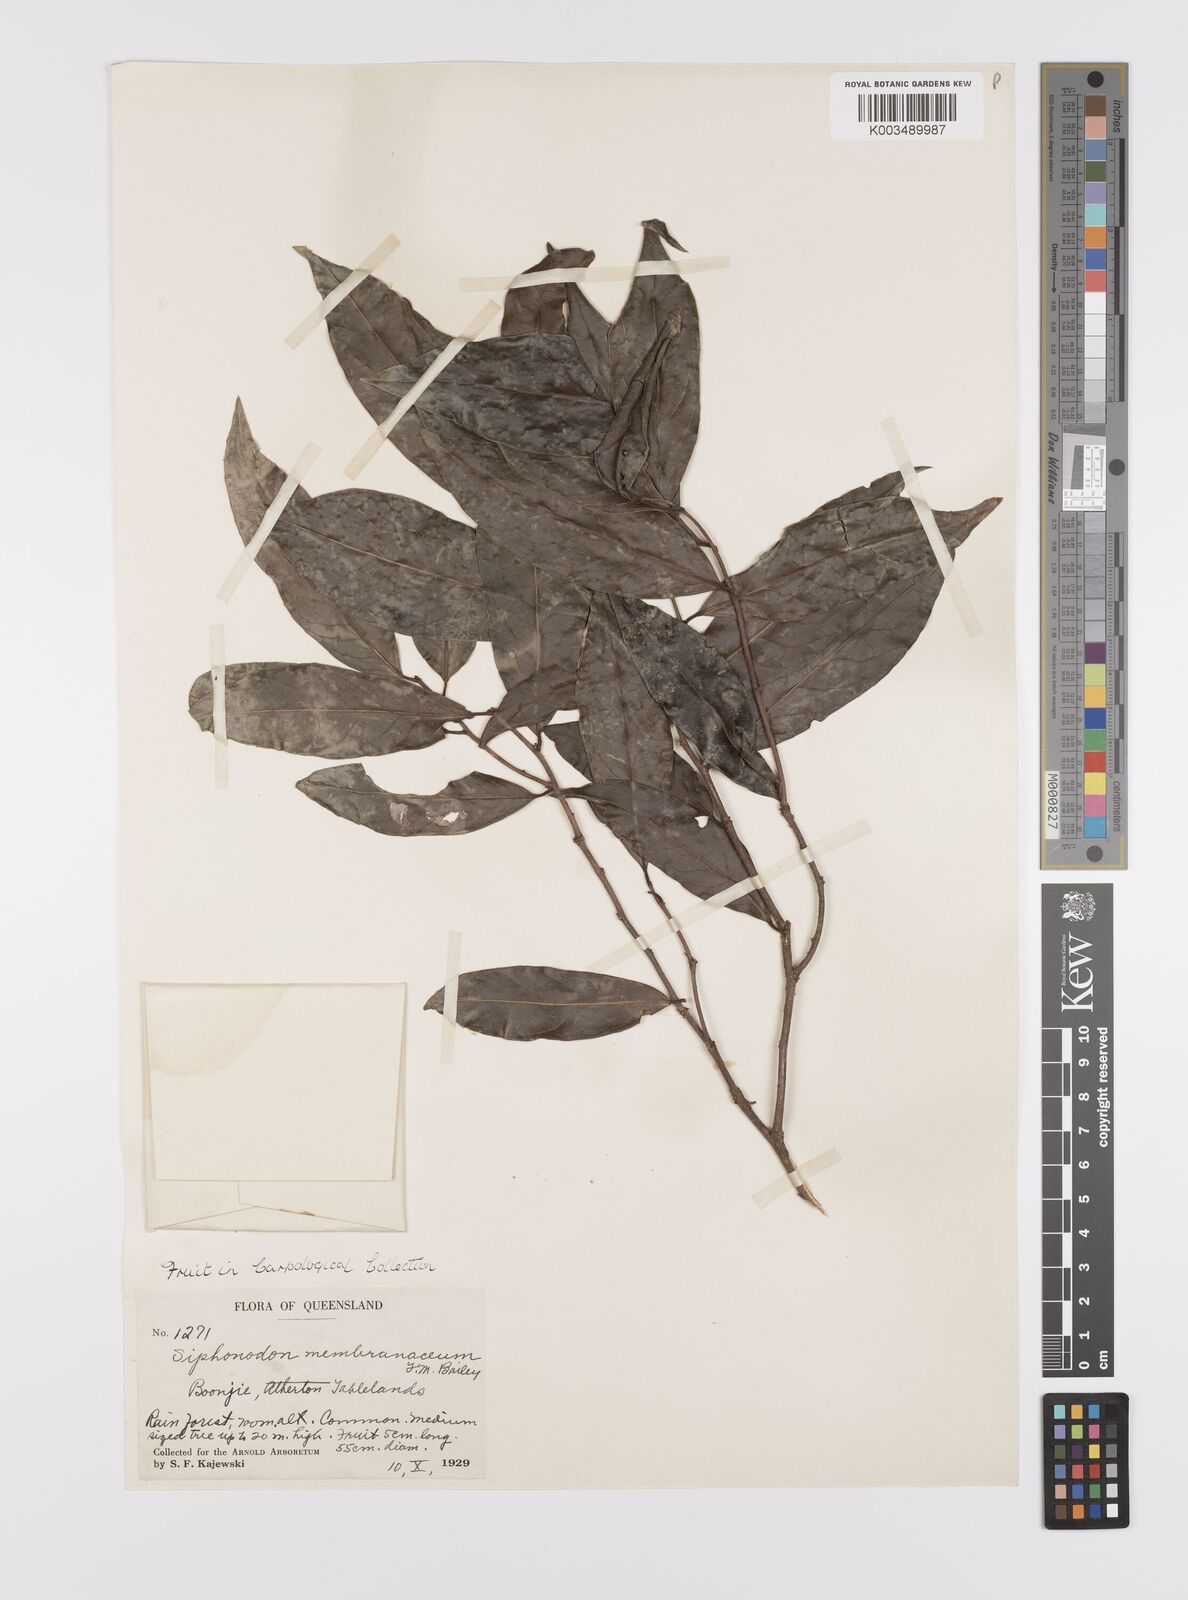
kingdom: Plantae
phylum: Tracheophyta
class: Magnoliopsida
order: Celastrales
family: Celastraceae
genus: Siphonodon
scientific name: Siphonodon membranaceus
